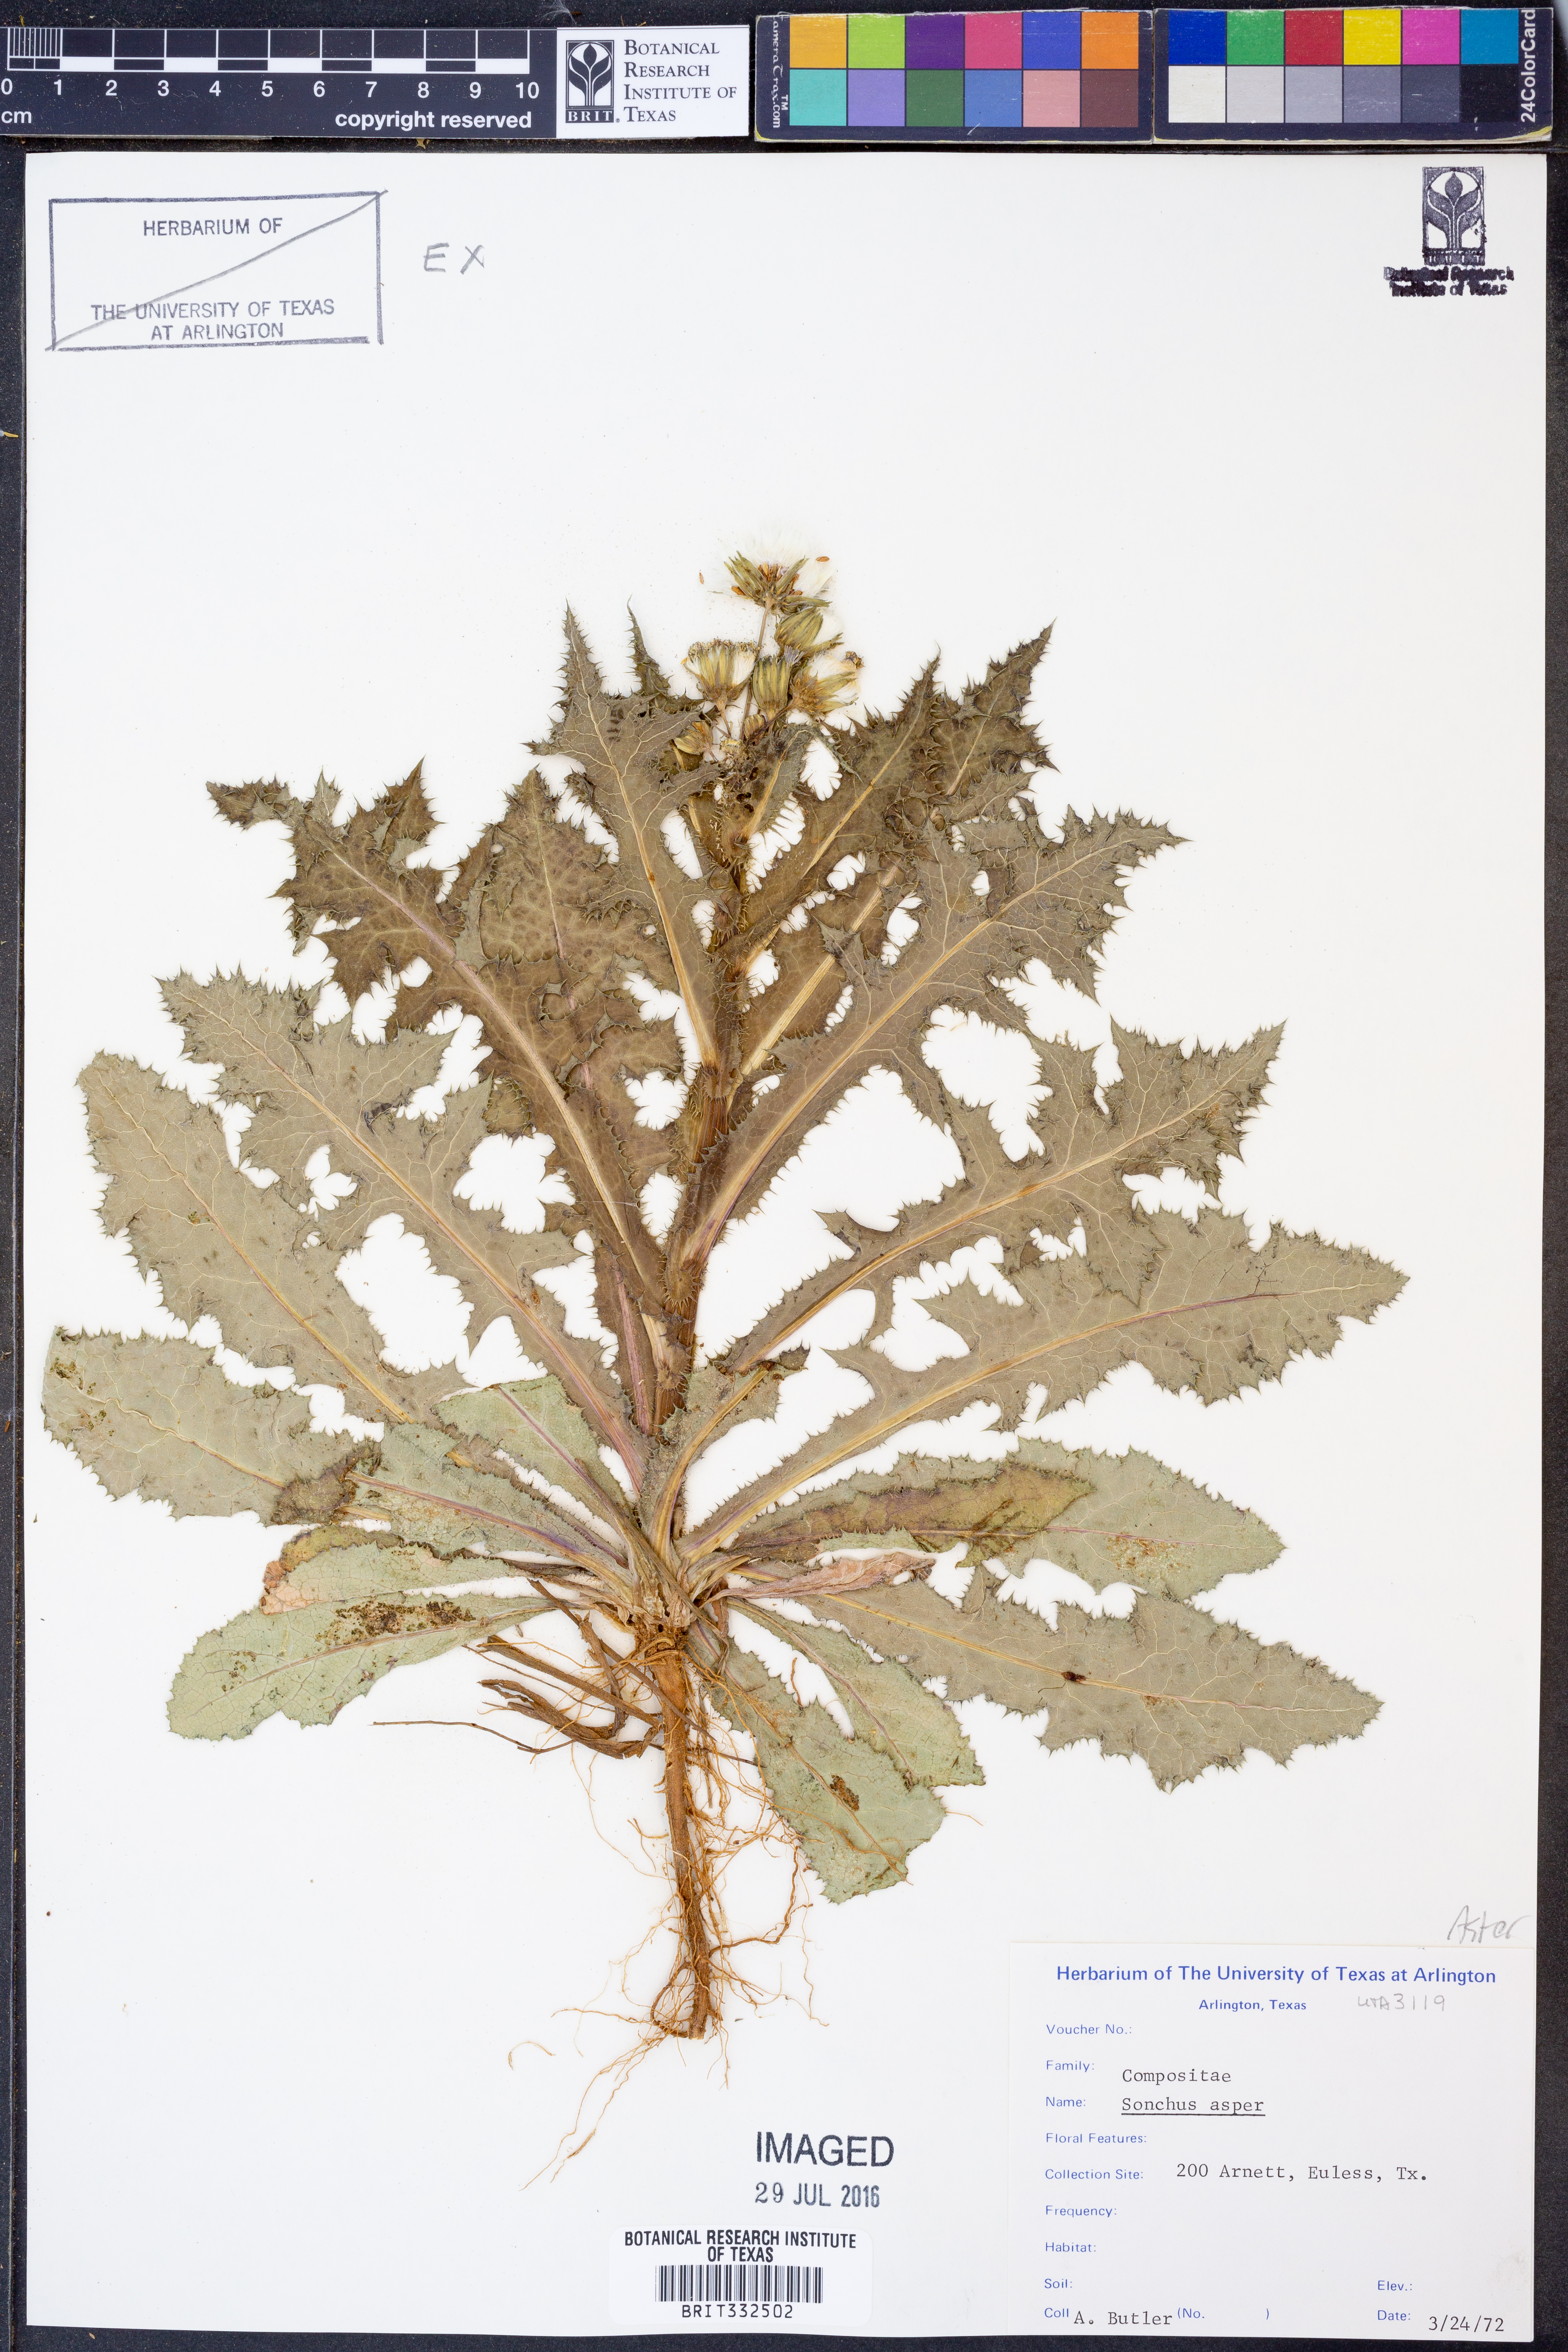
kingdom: Plantae
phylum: Tracheophyta
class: Magnoliopsida
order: Asterales
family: Asteraceae
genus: Sonchus
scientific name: Sonchus asper
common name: Prickly sow-thistle
